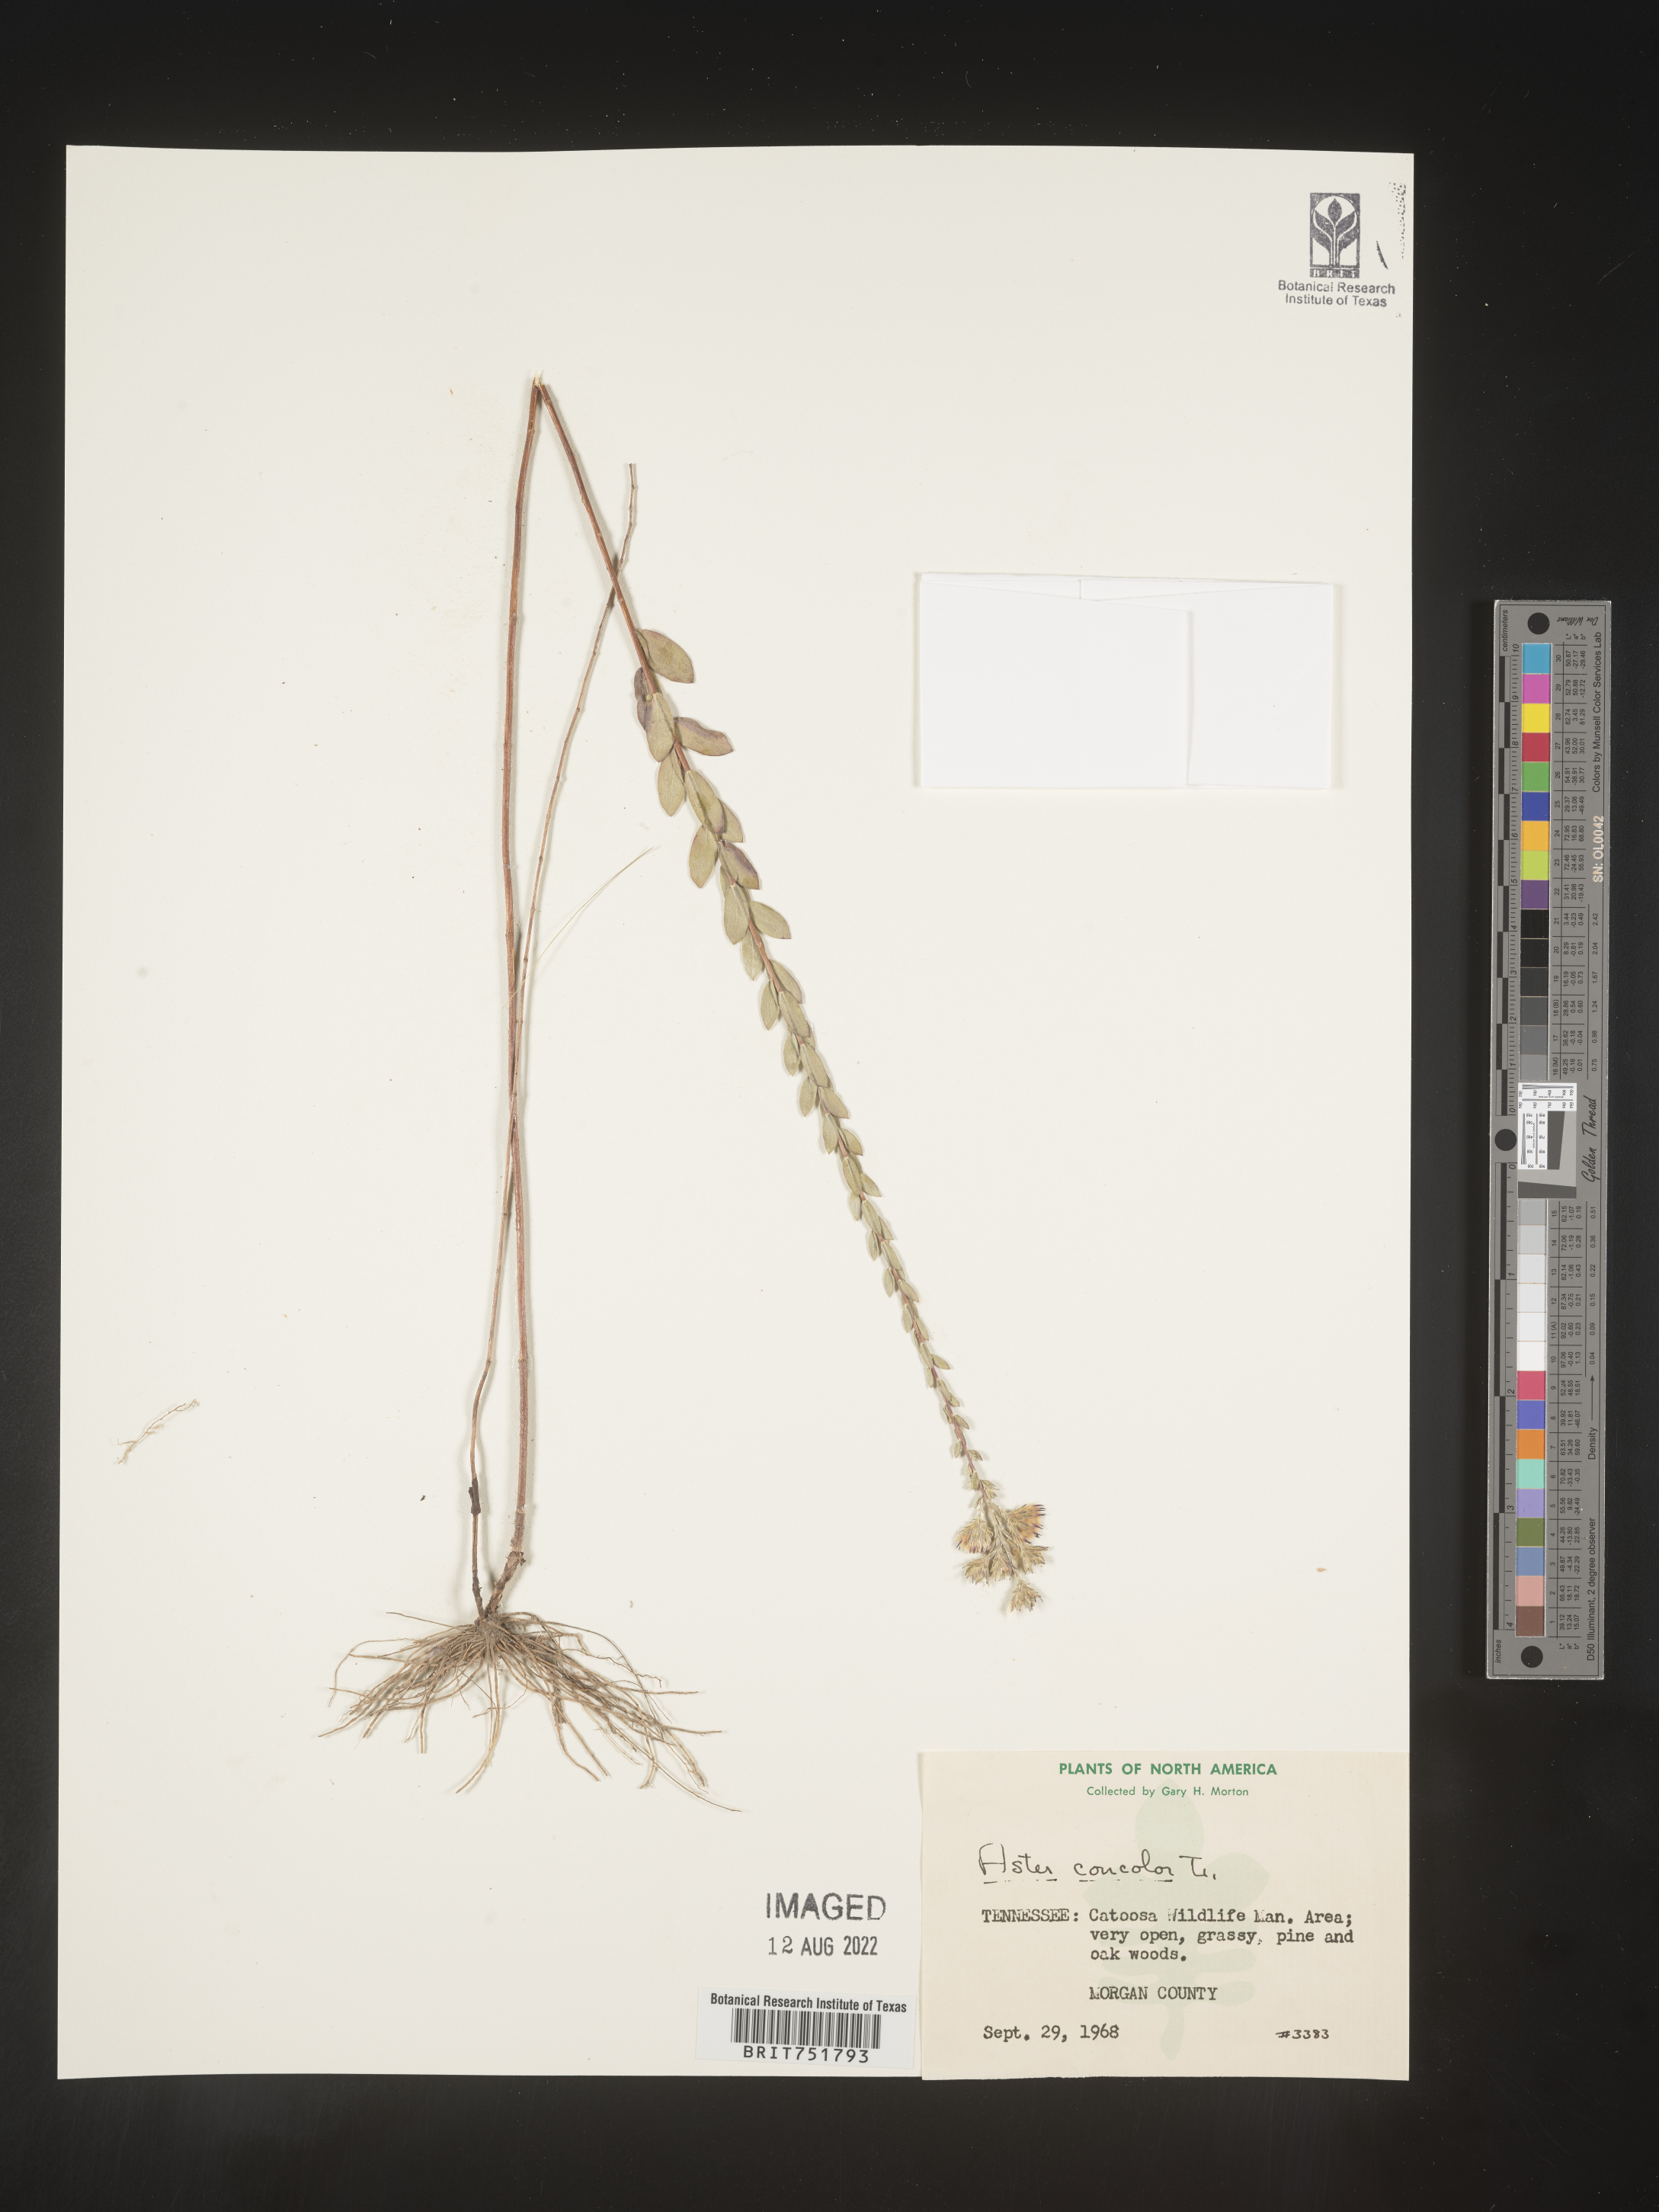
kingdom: Plantae
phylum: Tracheophyta
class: Magnoliopsida
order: Asterales
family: Asteraceae
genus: Symphyotrichum
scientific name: Symphyotrichum concolor
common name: Eastern silver aster
